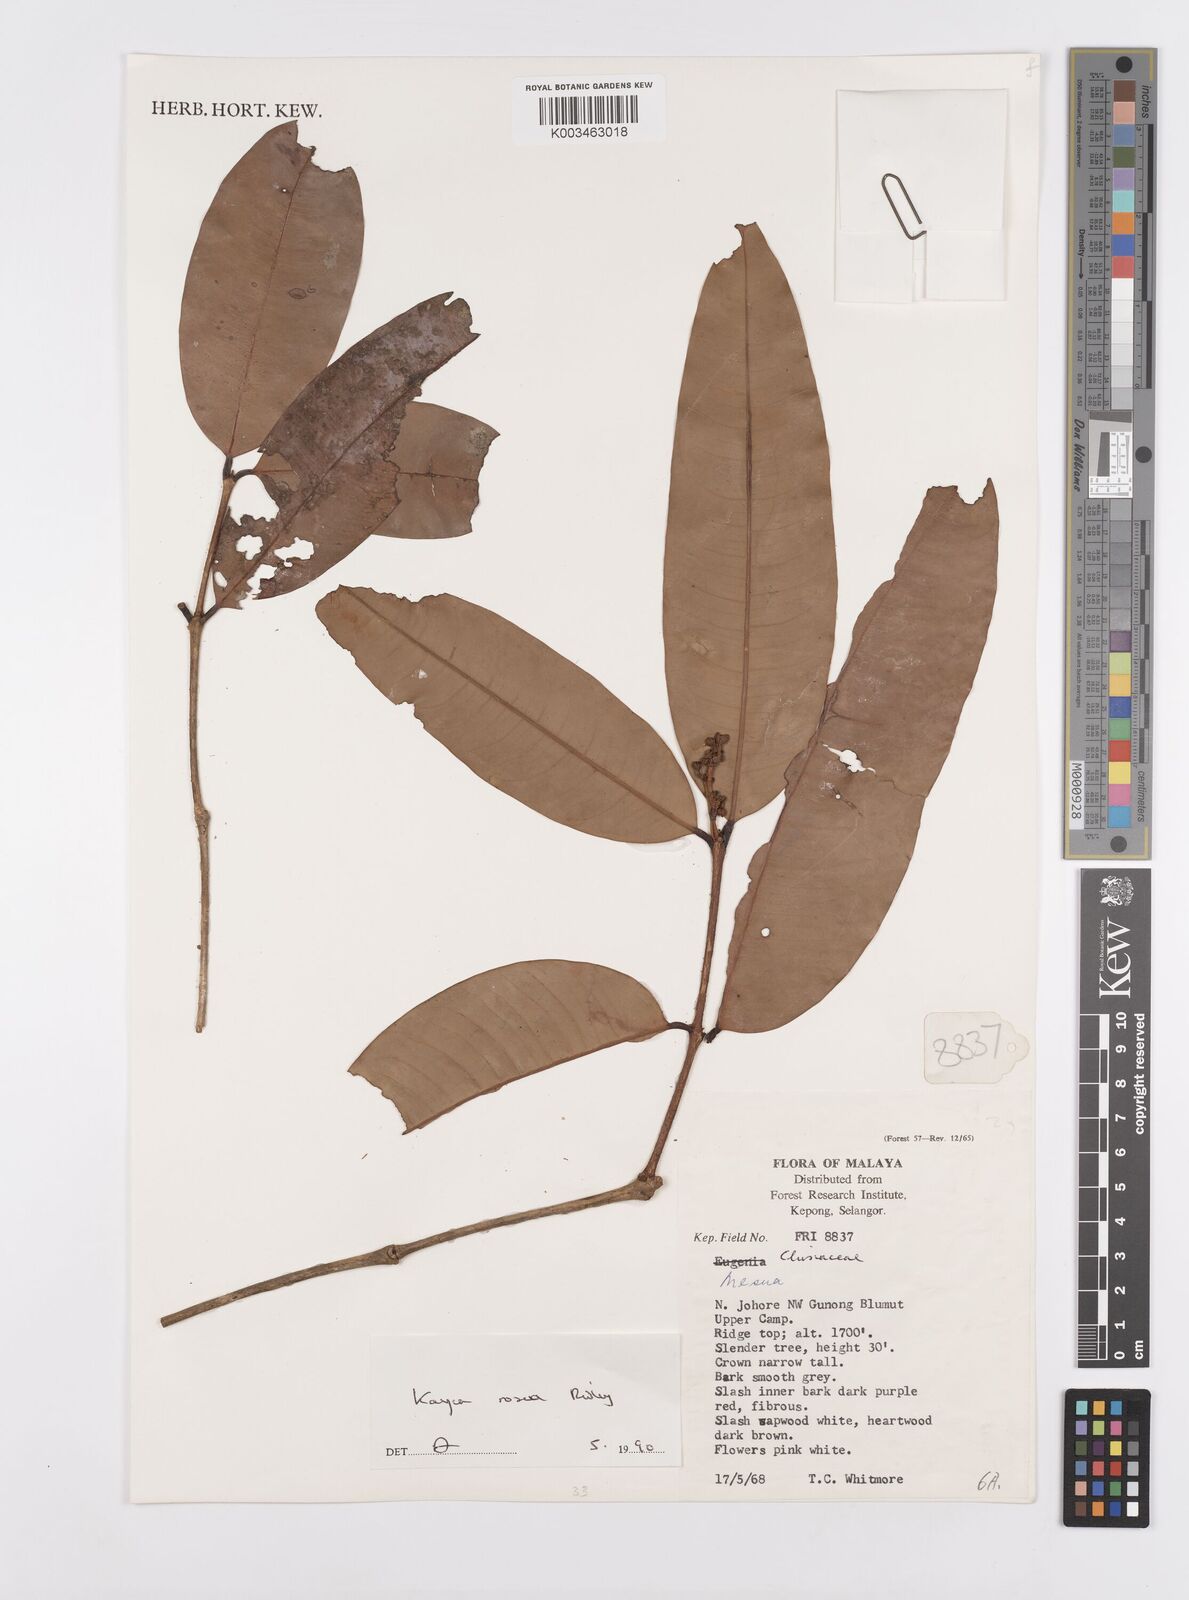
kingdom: Plantae
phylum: Tracheophyta
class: Magnoliopsida
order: Malpighiales
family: Calophyllaceae
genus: Kayea
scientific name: Kayea rosea
